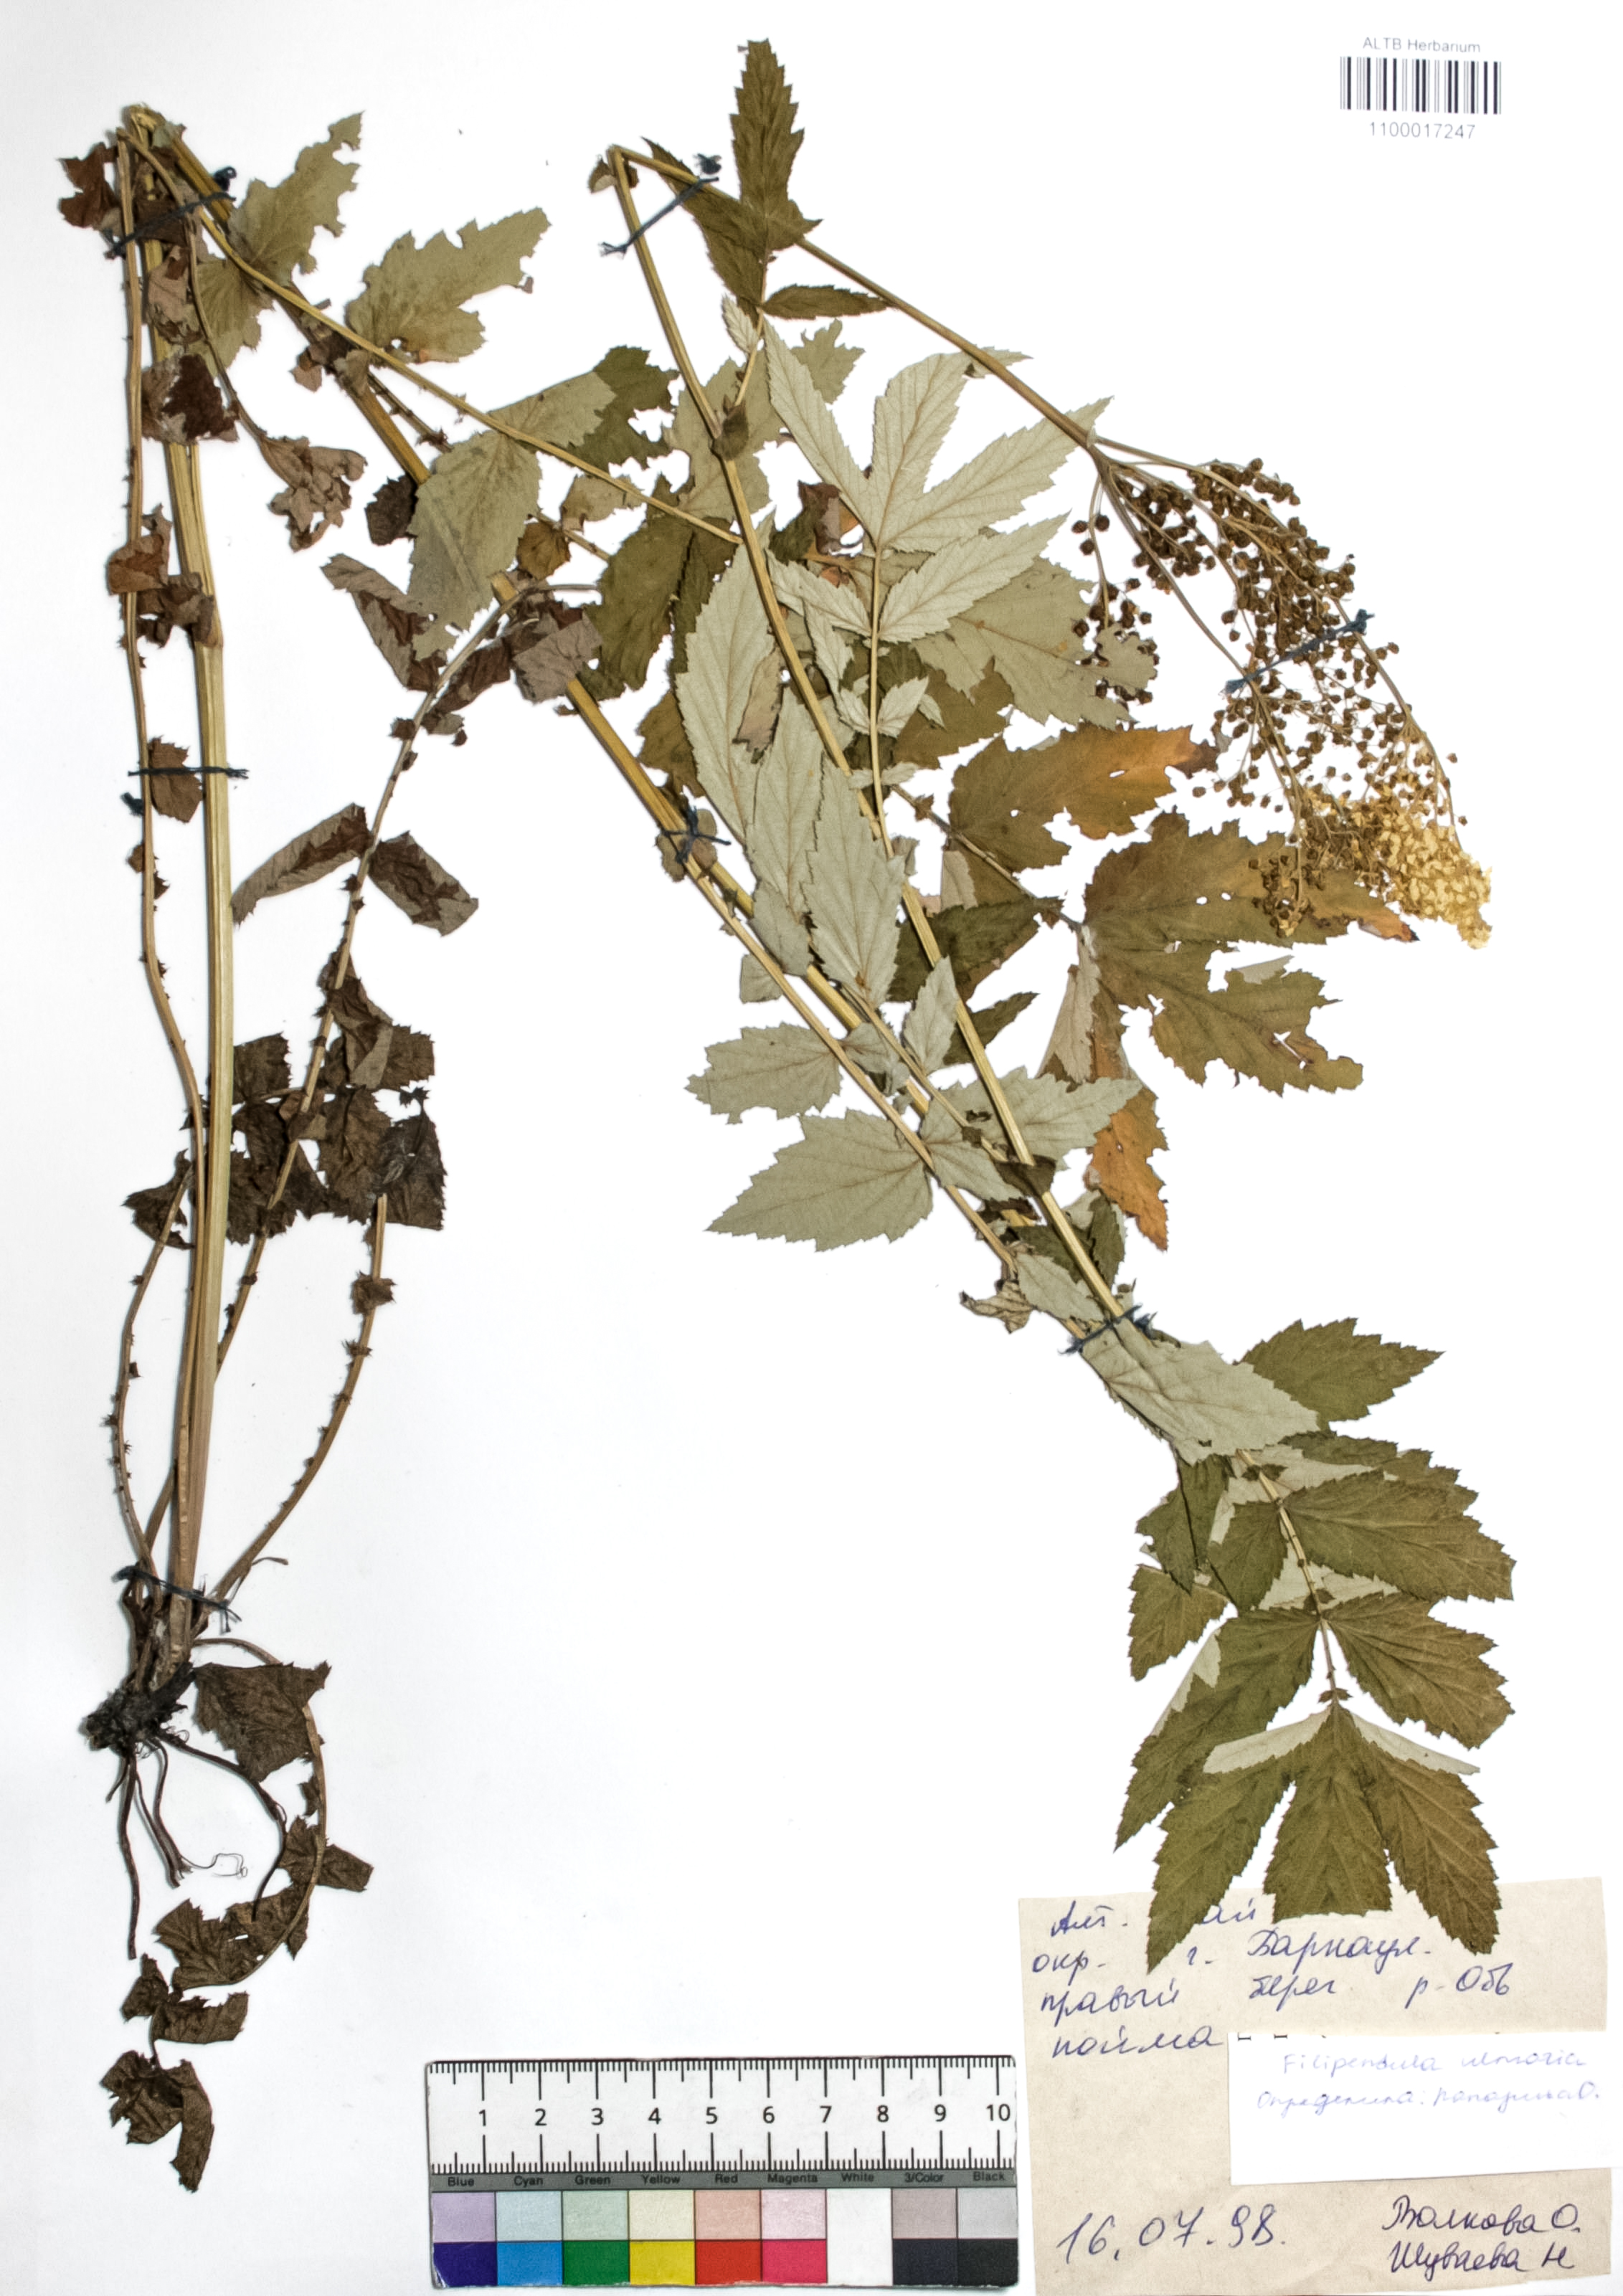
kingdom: Plantae
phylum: Tracheophyta
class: Magnoliopsida
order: Rosales
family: Rosaceae
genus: Filipendula
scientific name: Filipendula ulmaria
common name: Meadowsweet
